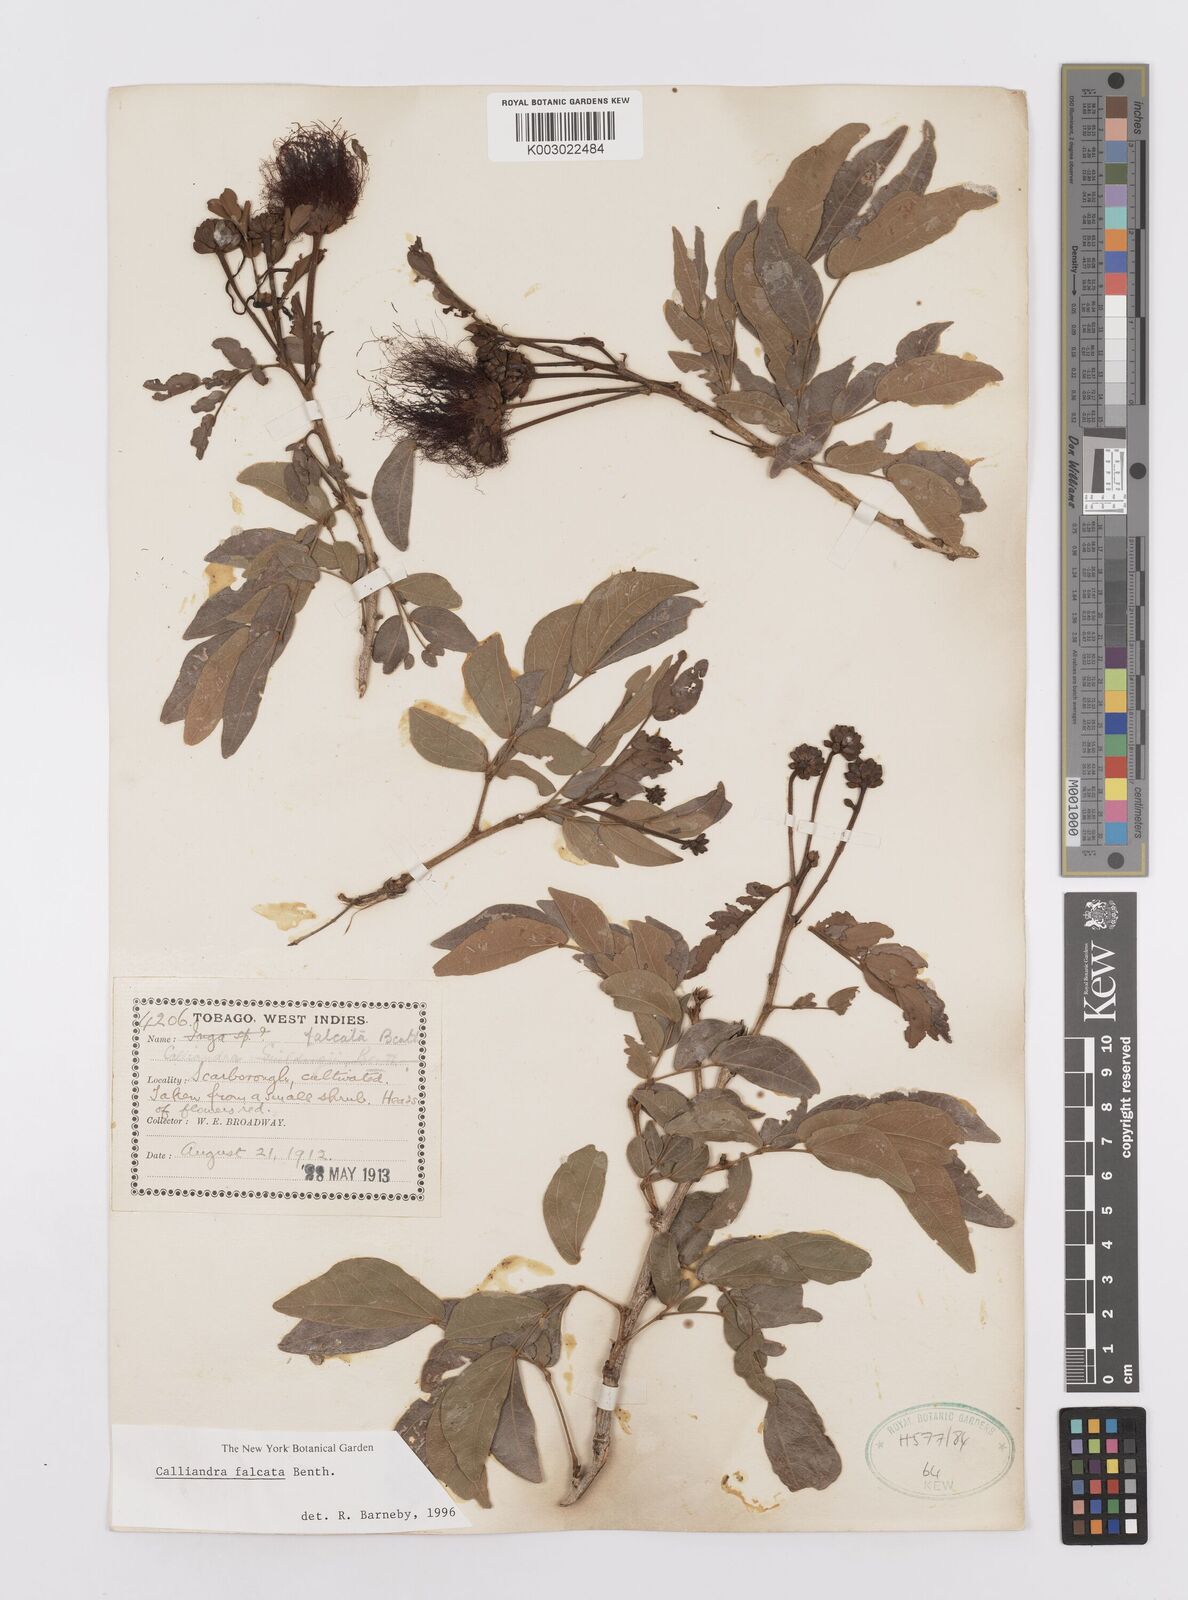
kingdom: Plantae
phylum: Tracheophyta
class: Magnoliopsida
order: Fabales
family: Fabaceae
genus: Calliandra
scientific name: Calliandra falcata
